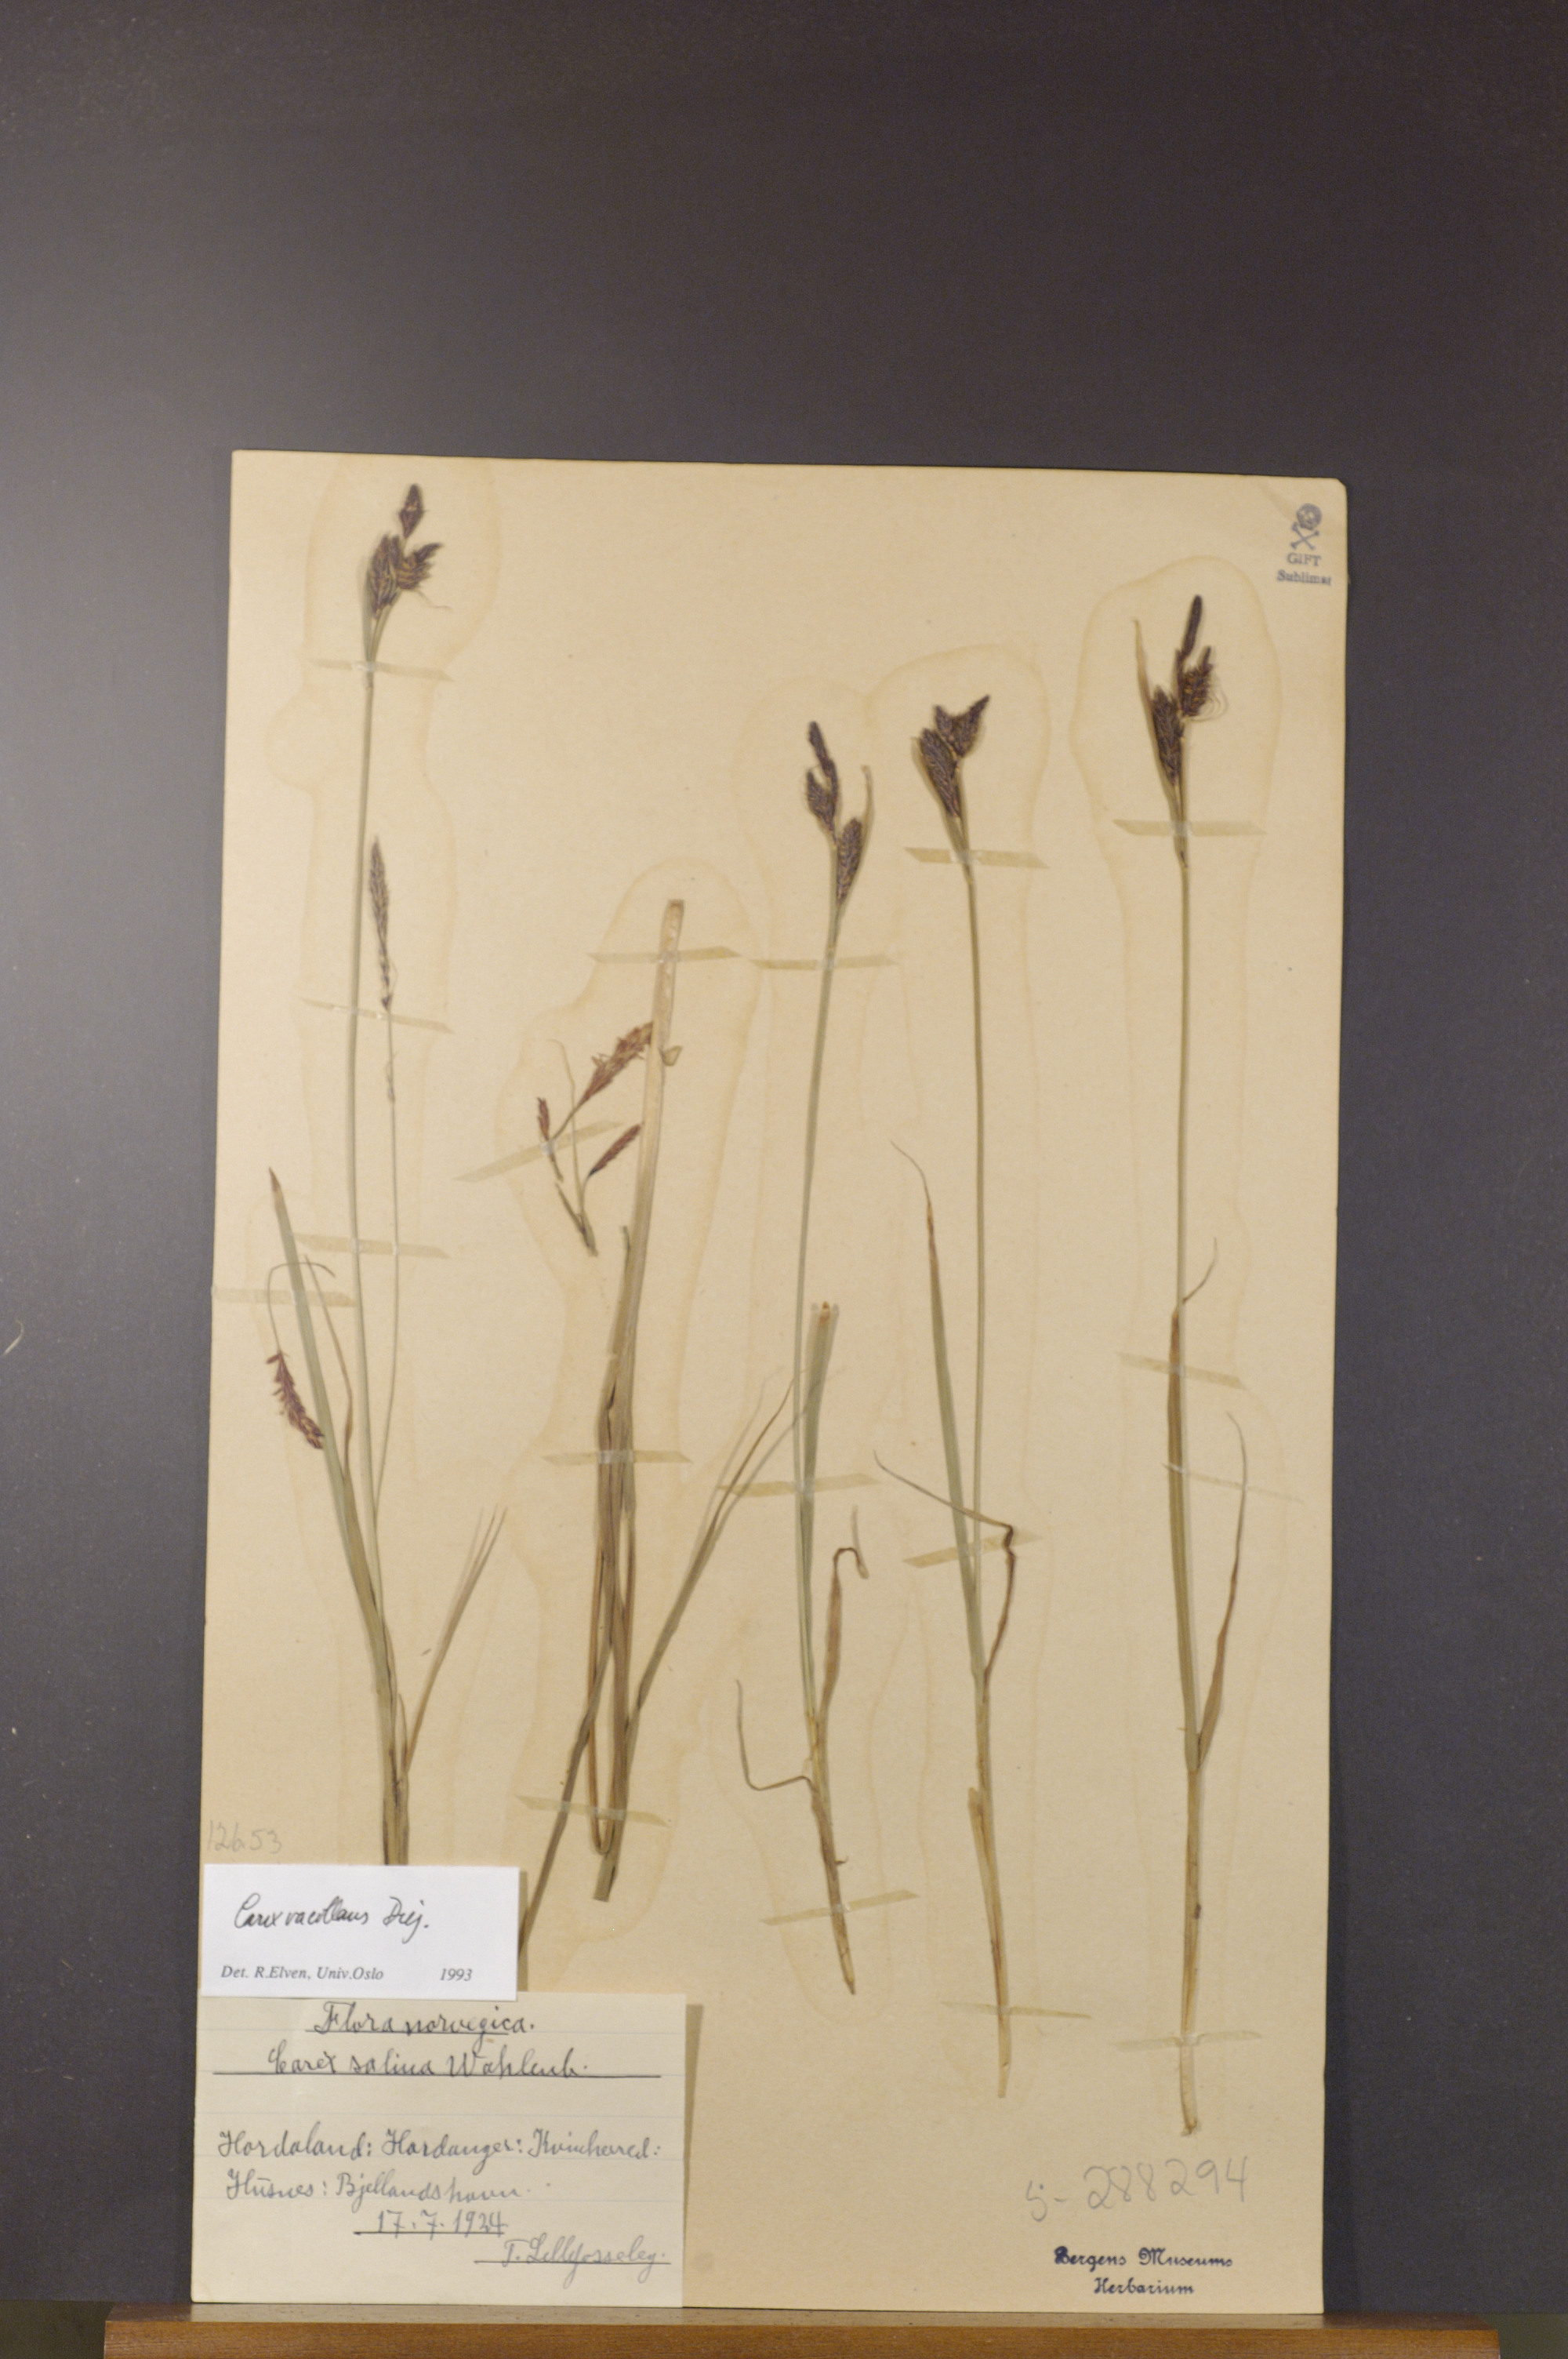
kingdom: Plantae
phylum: Tracheophyta
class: Liliopsida
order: Poales
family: Cyperaceae
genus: Carex
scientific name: Carex vacillans
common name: Sedge
